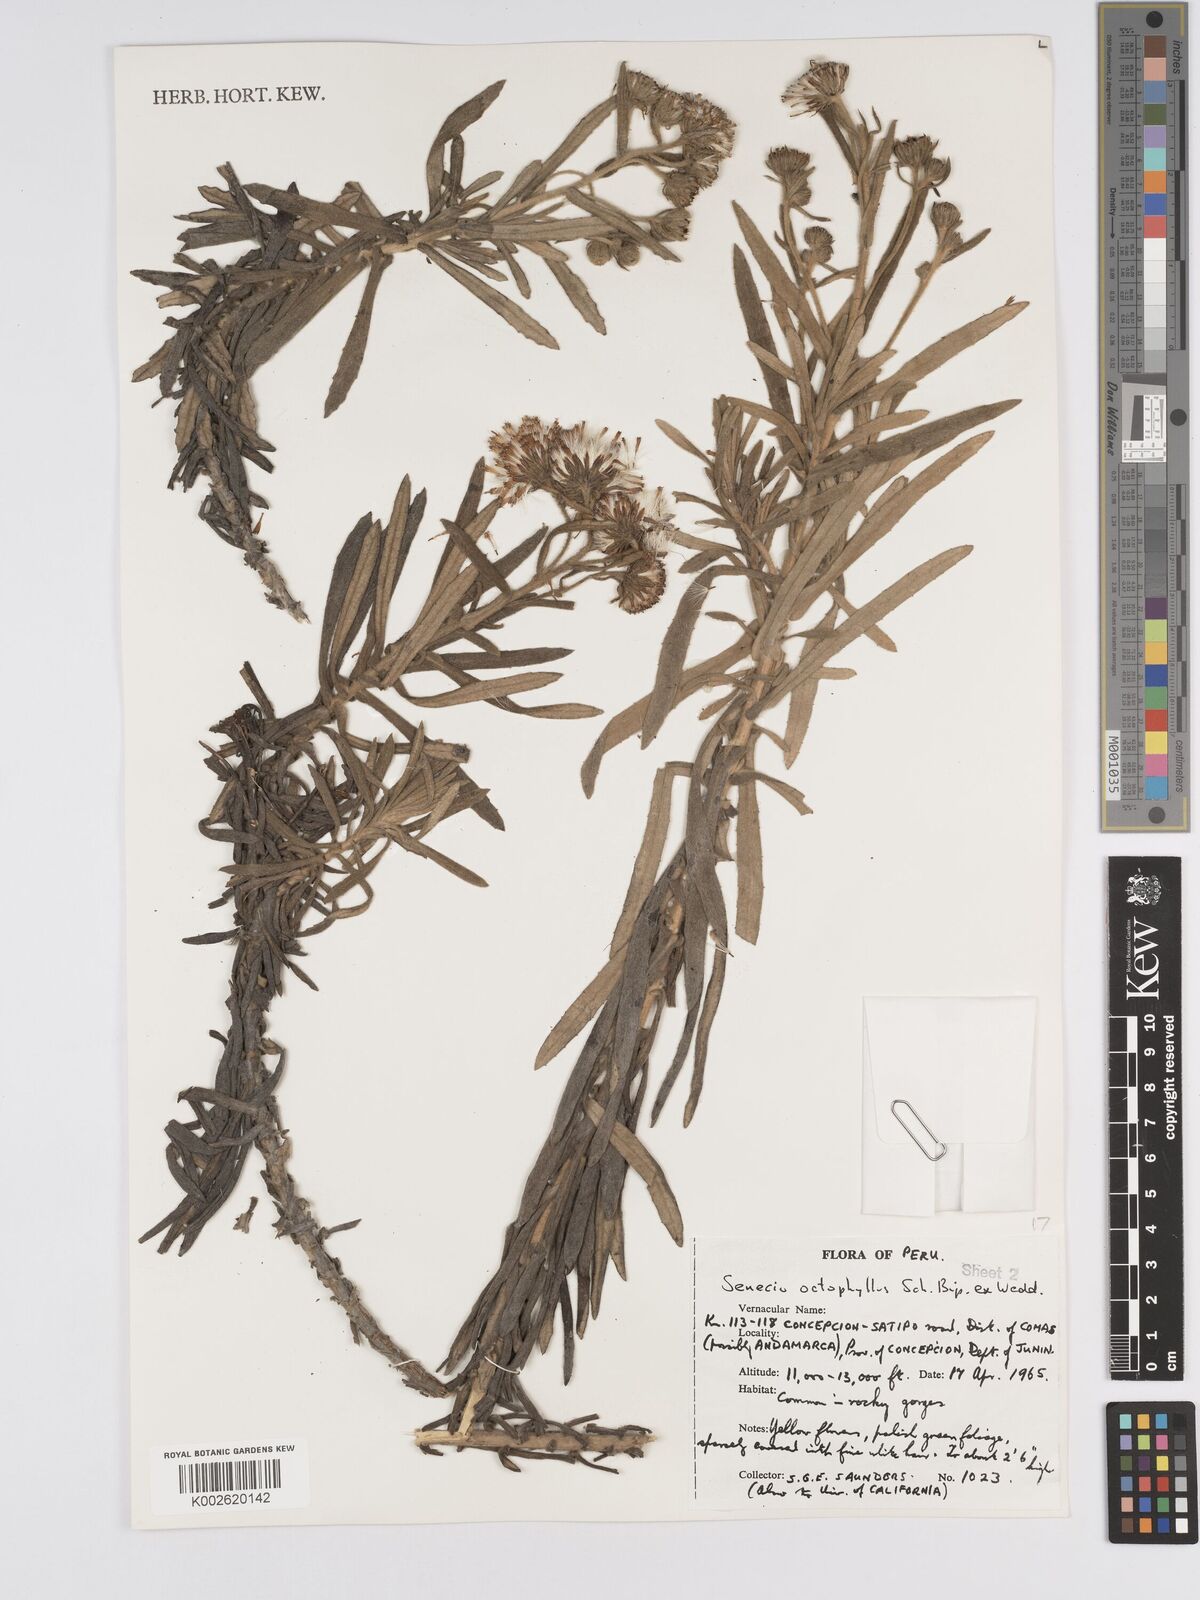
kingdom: Plantae
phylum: Tracheophyta
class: Magnoliopsida
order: Asterales
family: Asteraceae
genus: Senecio
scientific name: Senecio octophyllus
